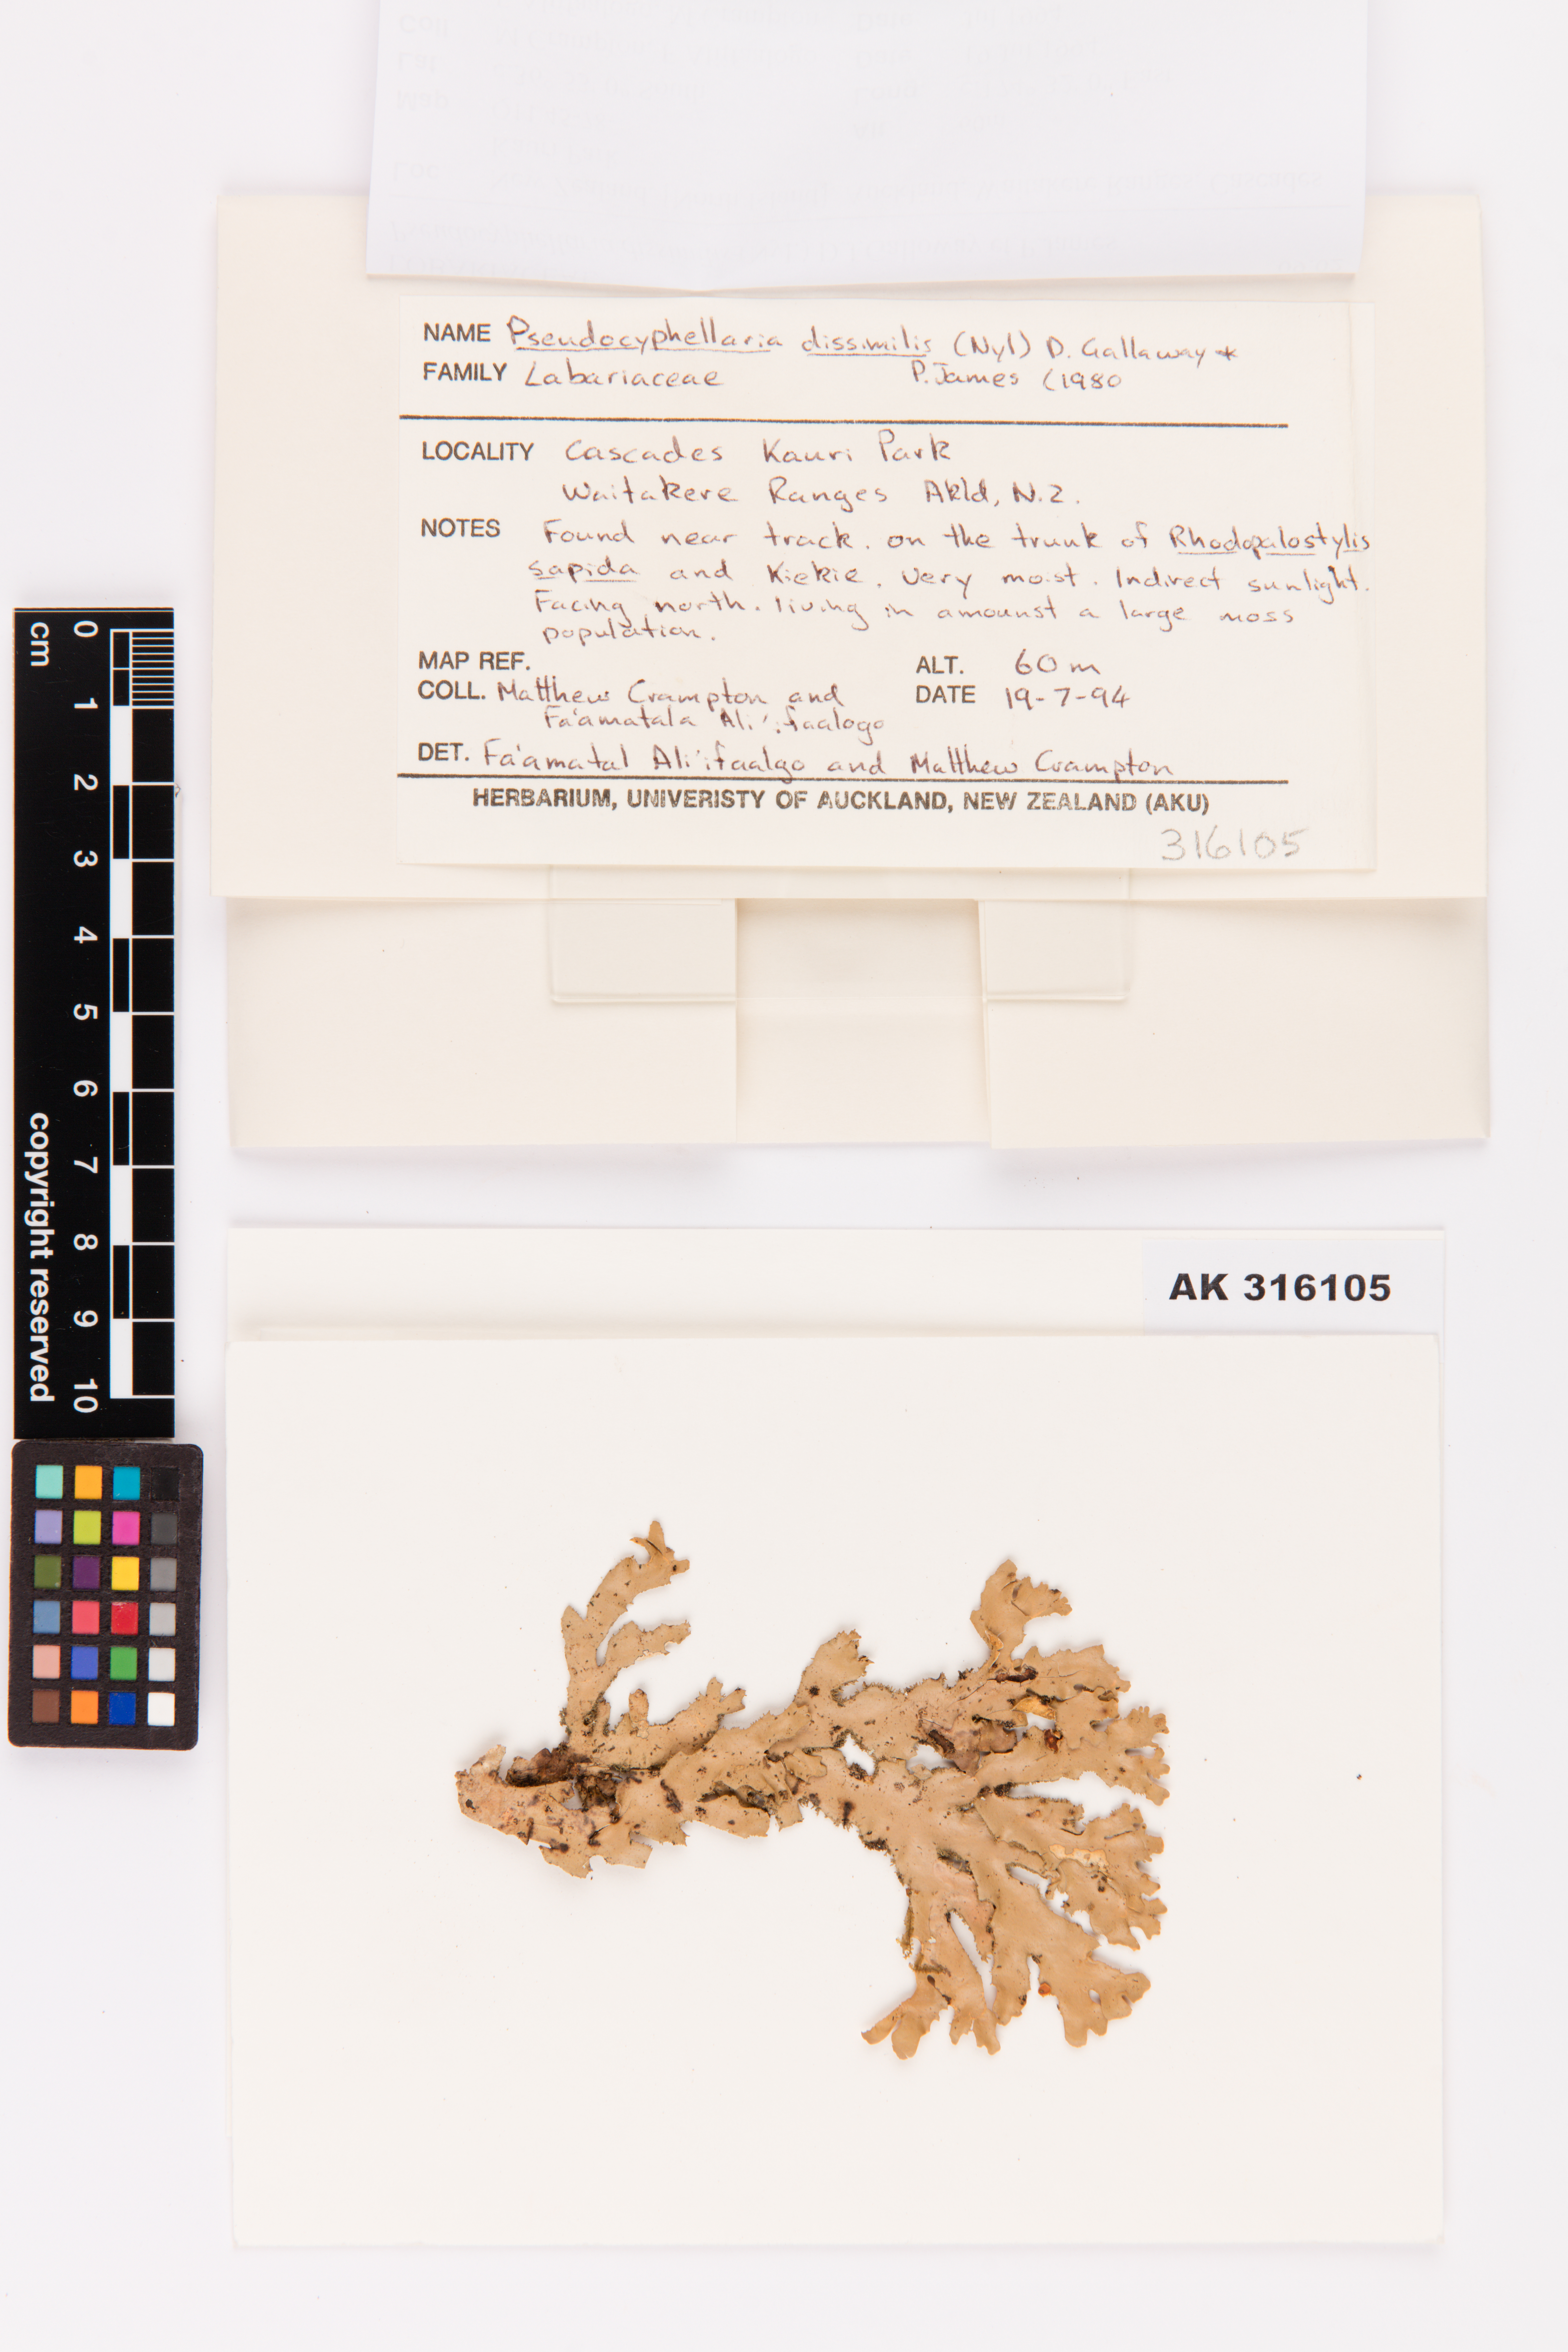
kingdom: Fungi
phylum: Ascomycota
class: Lecanoromycetes
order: Peltigerales
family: Lobariaceae
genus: Pseudocyphellaria
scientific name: Pseudocyphellaria dissimilis
